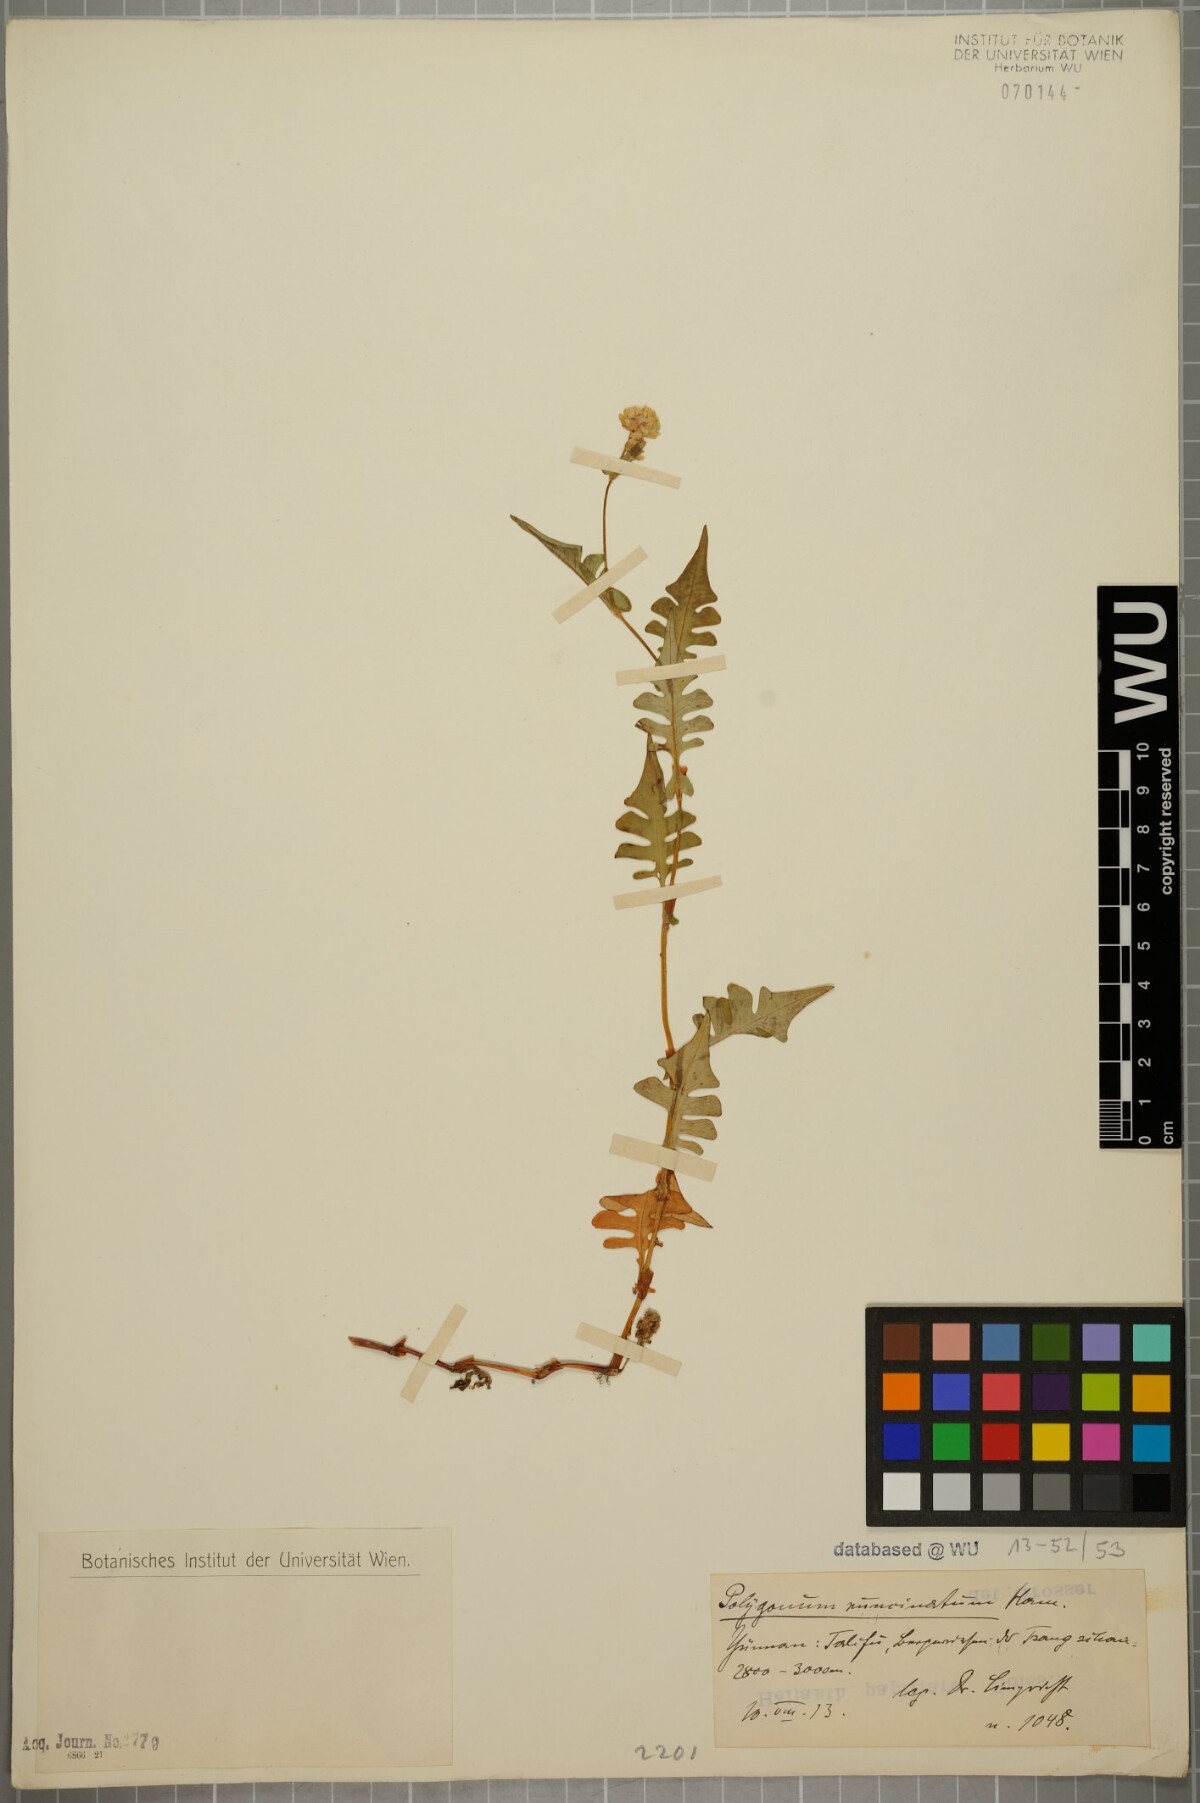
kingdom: Plantae
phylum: Tracheophyta
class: Magnoliopsida
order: Caryophyllales
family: Polygonaceae
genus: Persicaria
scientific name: Persicaria runcinata
